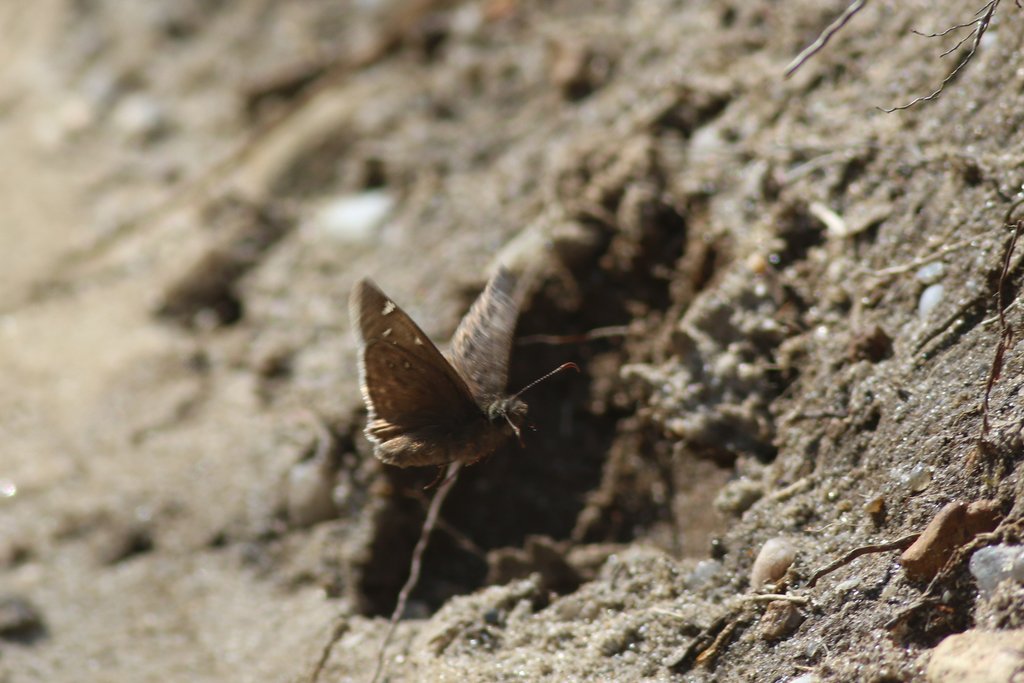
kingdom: Animalia
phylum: Arthropoda
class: Insecta
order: Lepidoptera
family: Hesperiidae
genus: Gesta
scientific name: Gesta
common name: Juvenal's Duskywing
